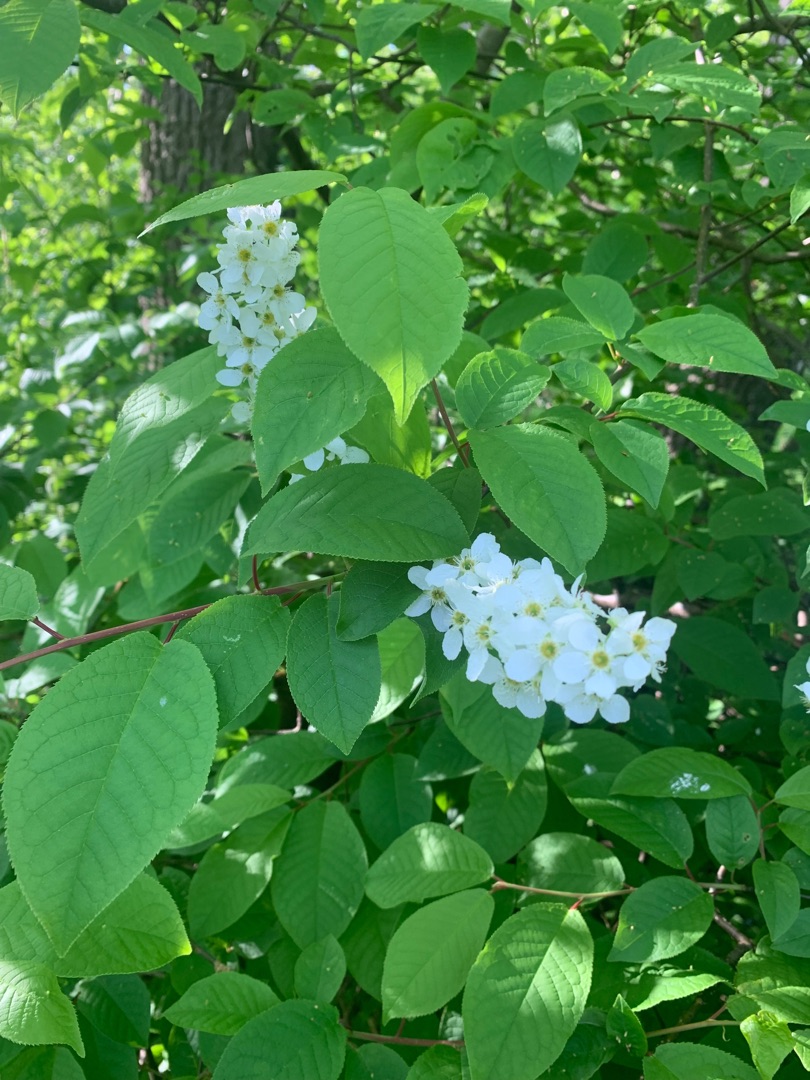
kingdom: Plantae
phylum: Tracheophyta
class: Magnoliopsida
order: Rosales
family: Rosaceae
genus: Prunus
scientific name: Prunus padus
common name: Almindelig hæg
